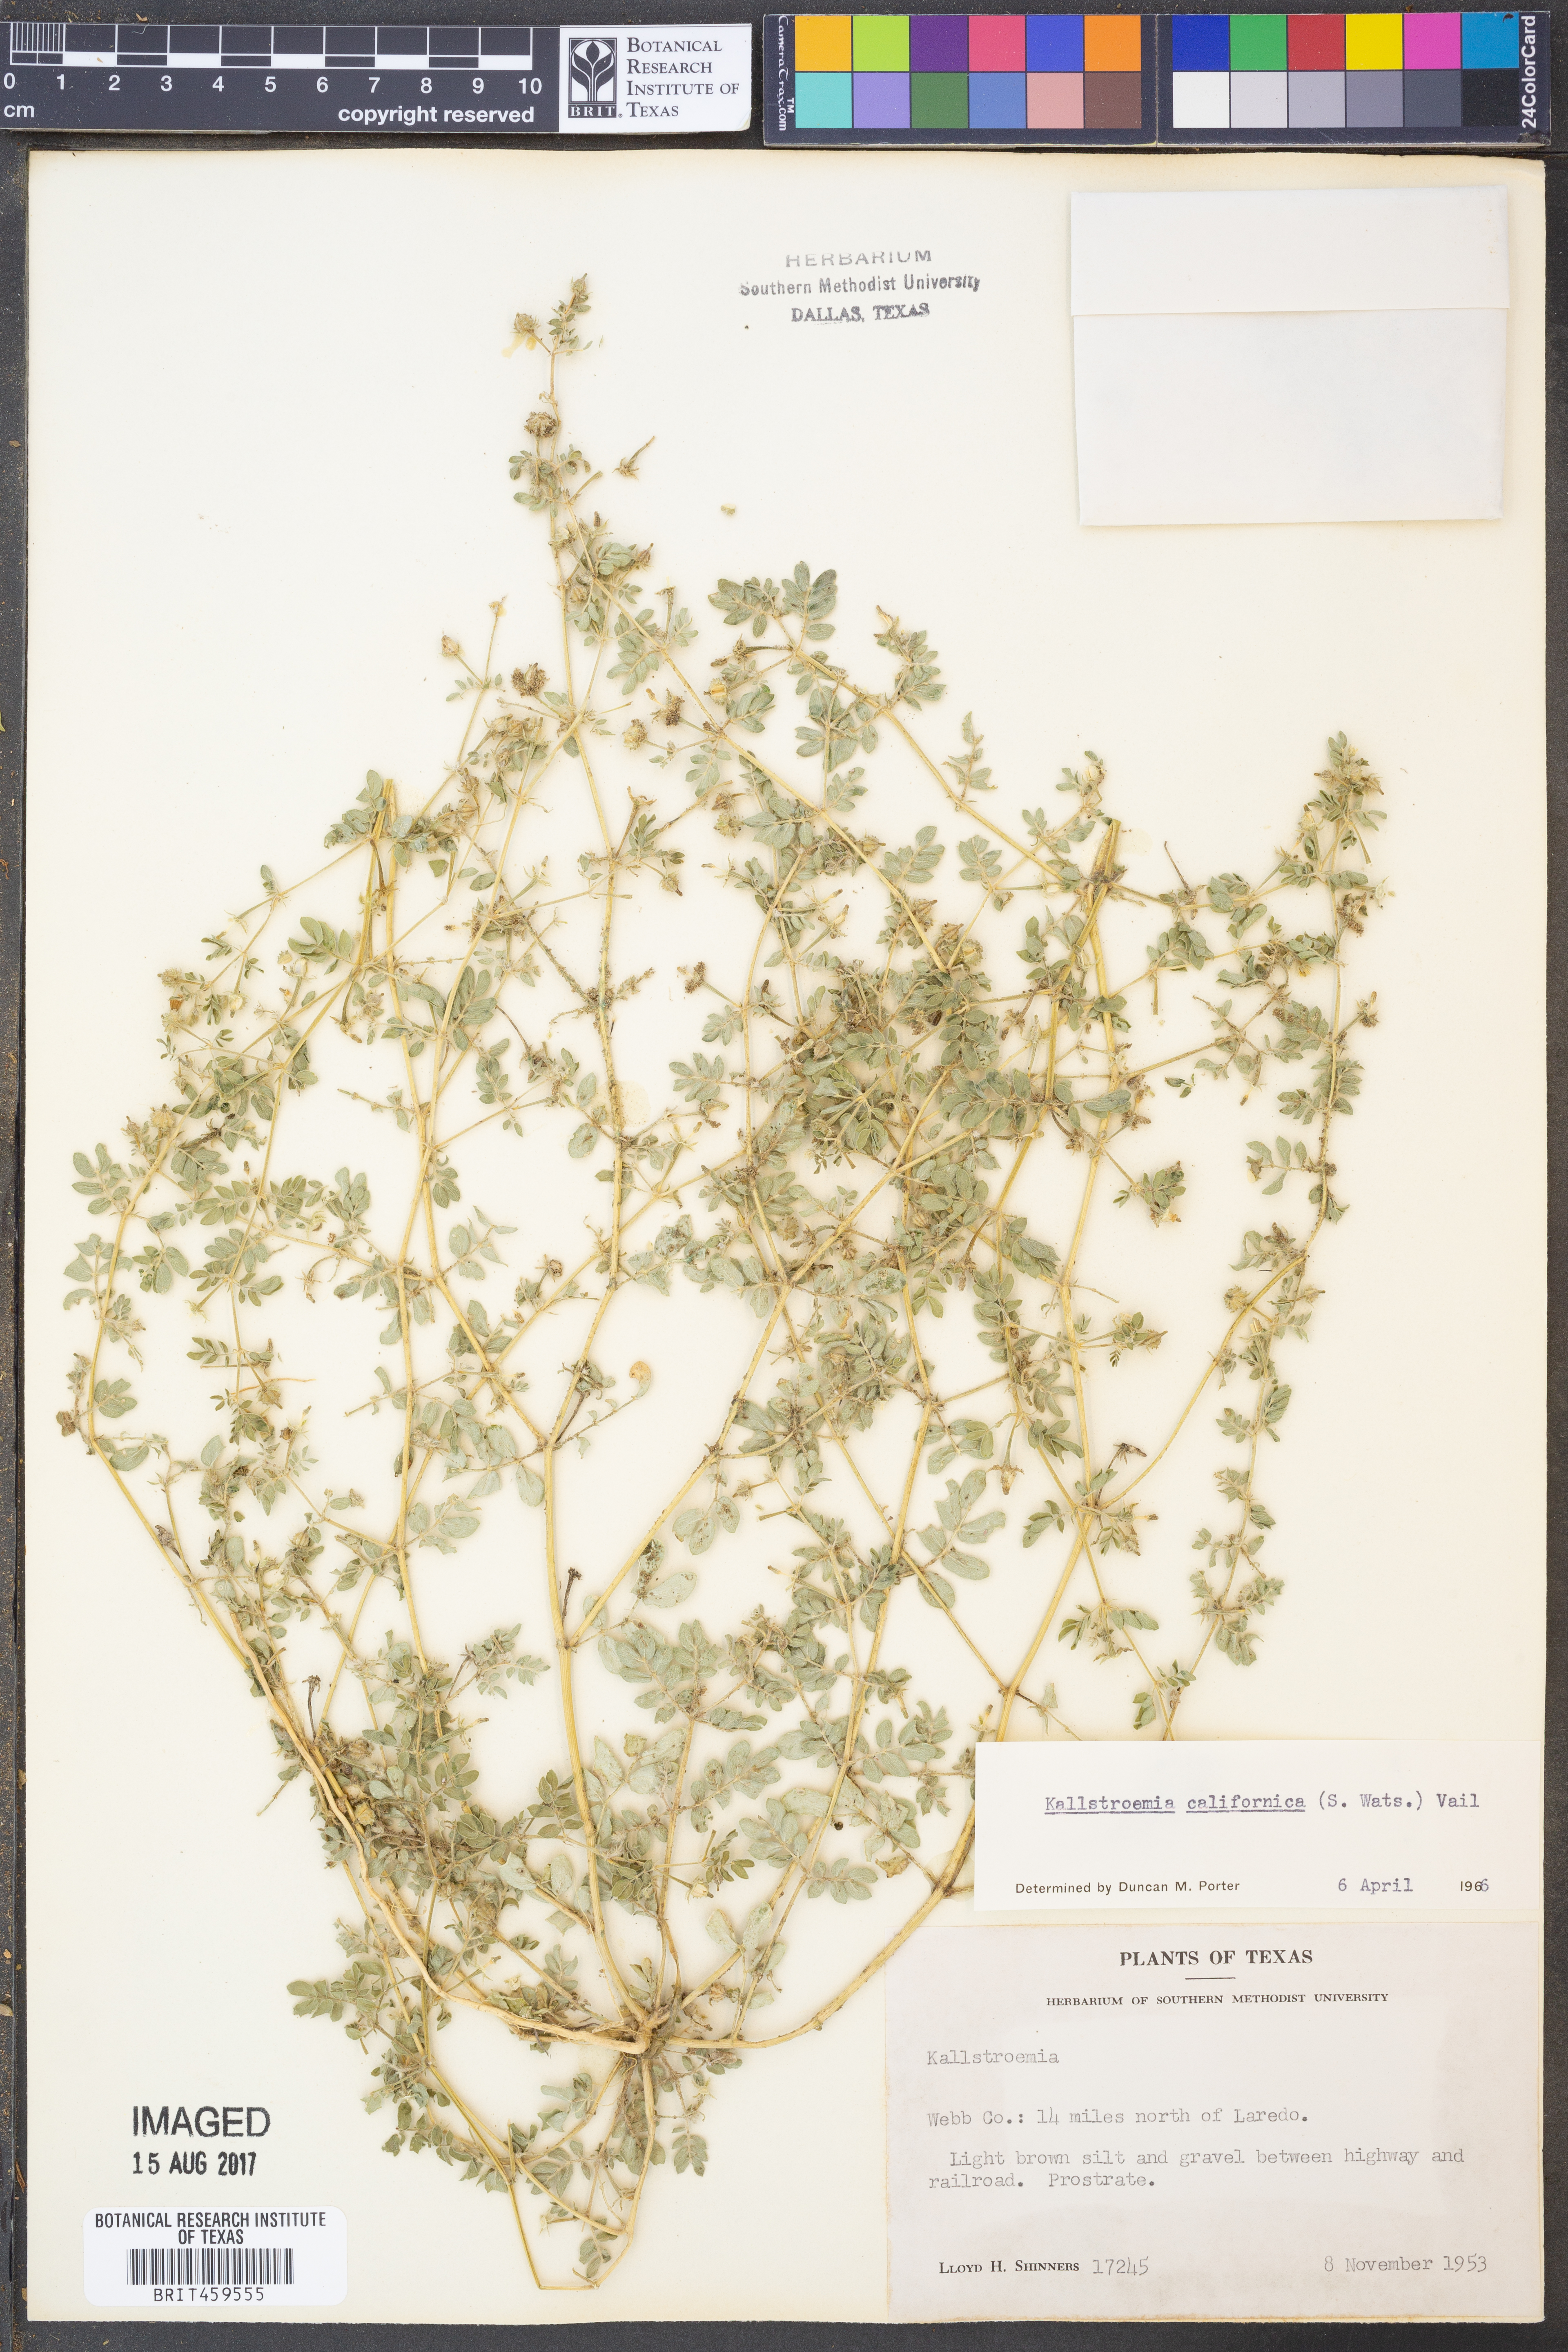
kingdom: Plantae
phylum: Tracheophyta
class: Magnoliopsida
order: Zygophyllales
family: Zygophyllaceae
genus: Kallstroemia
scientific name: Kallstroemia californica
